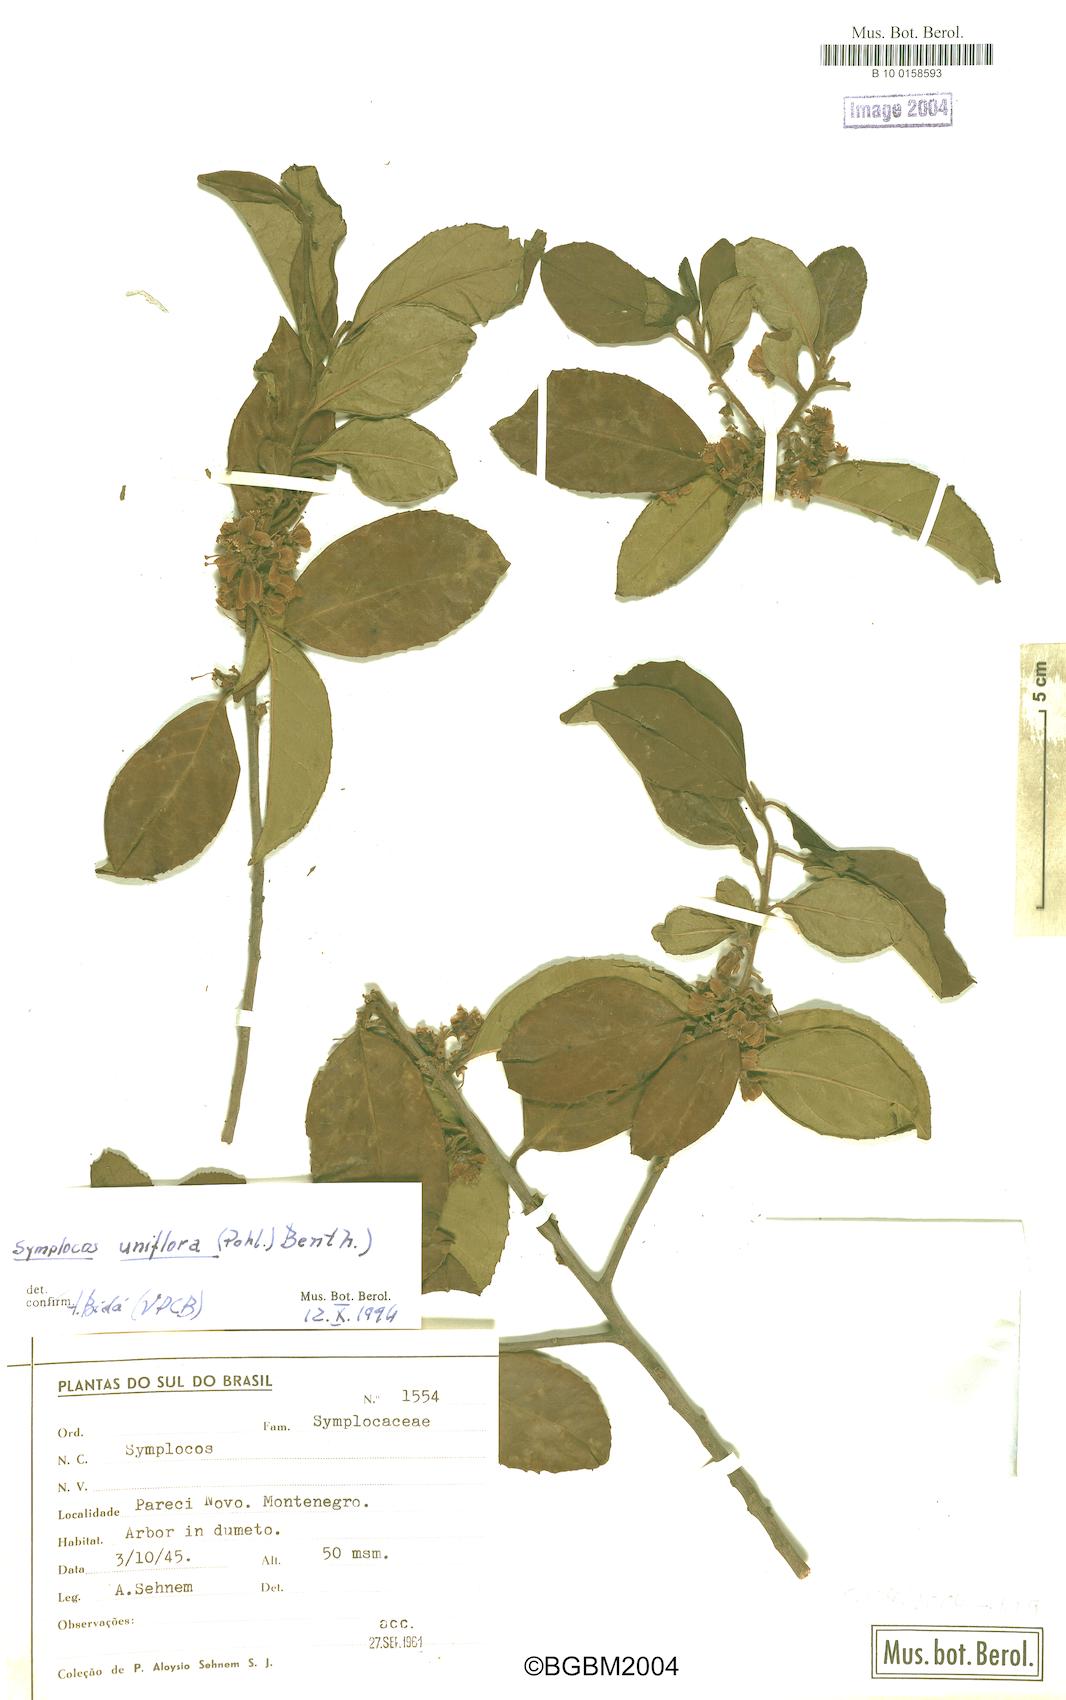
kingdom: Plantae
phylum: Tracheophyta
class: Magnoliopsida
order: Ericales
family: Symplocaceae
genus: Symplocos
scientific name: Symplocos uniflora
